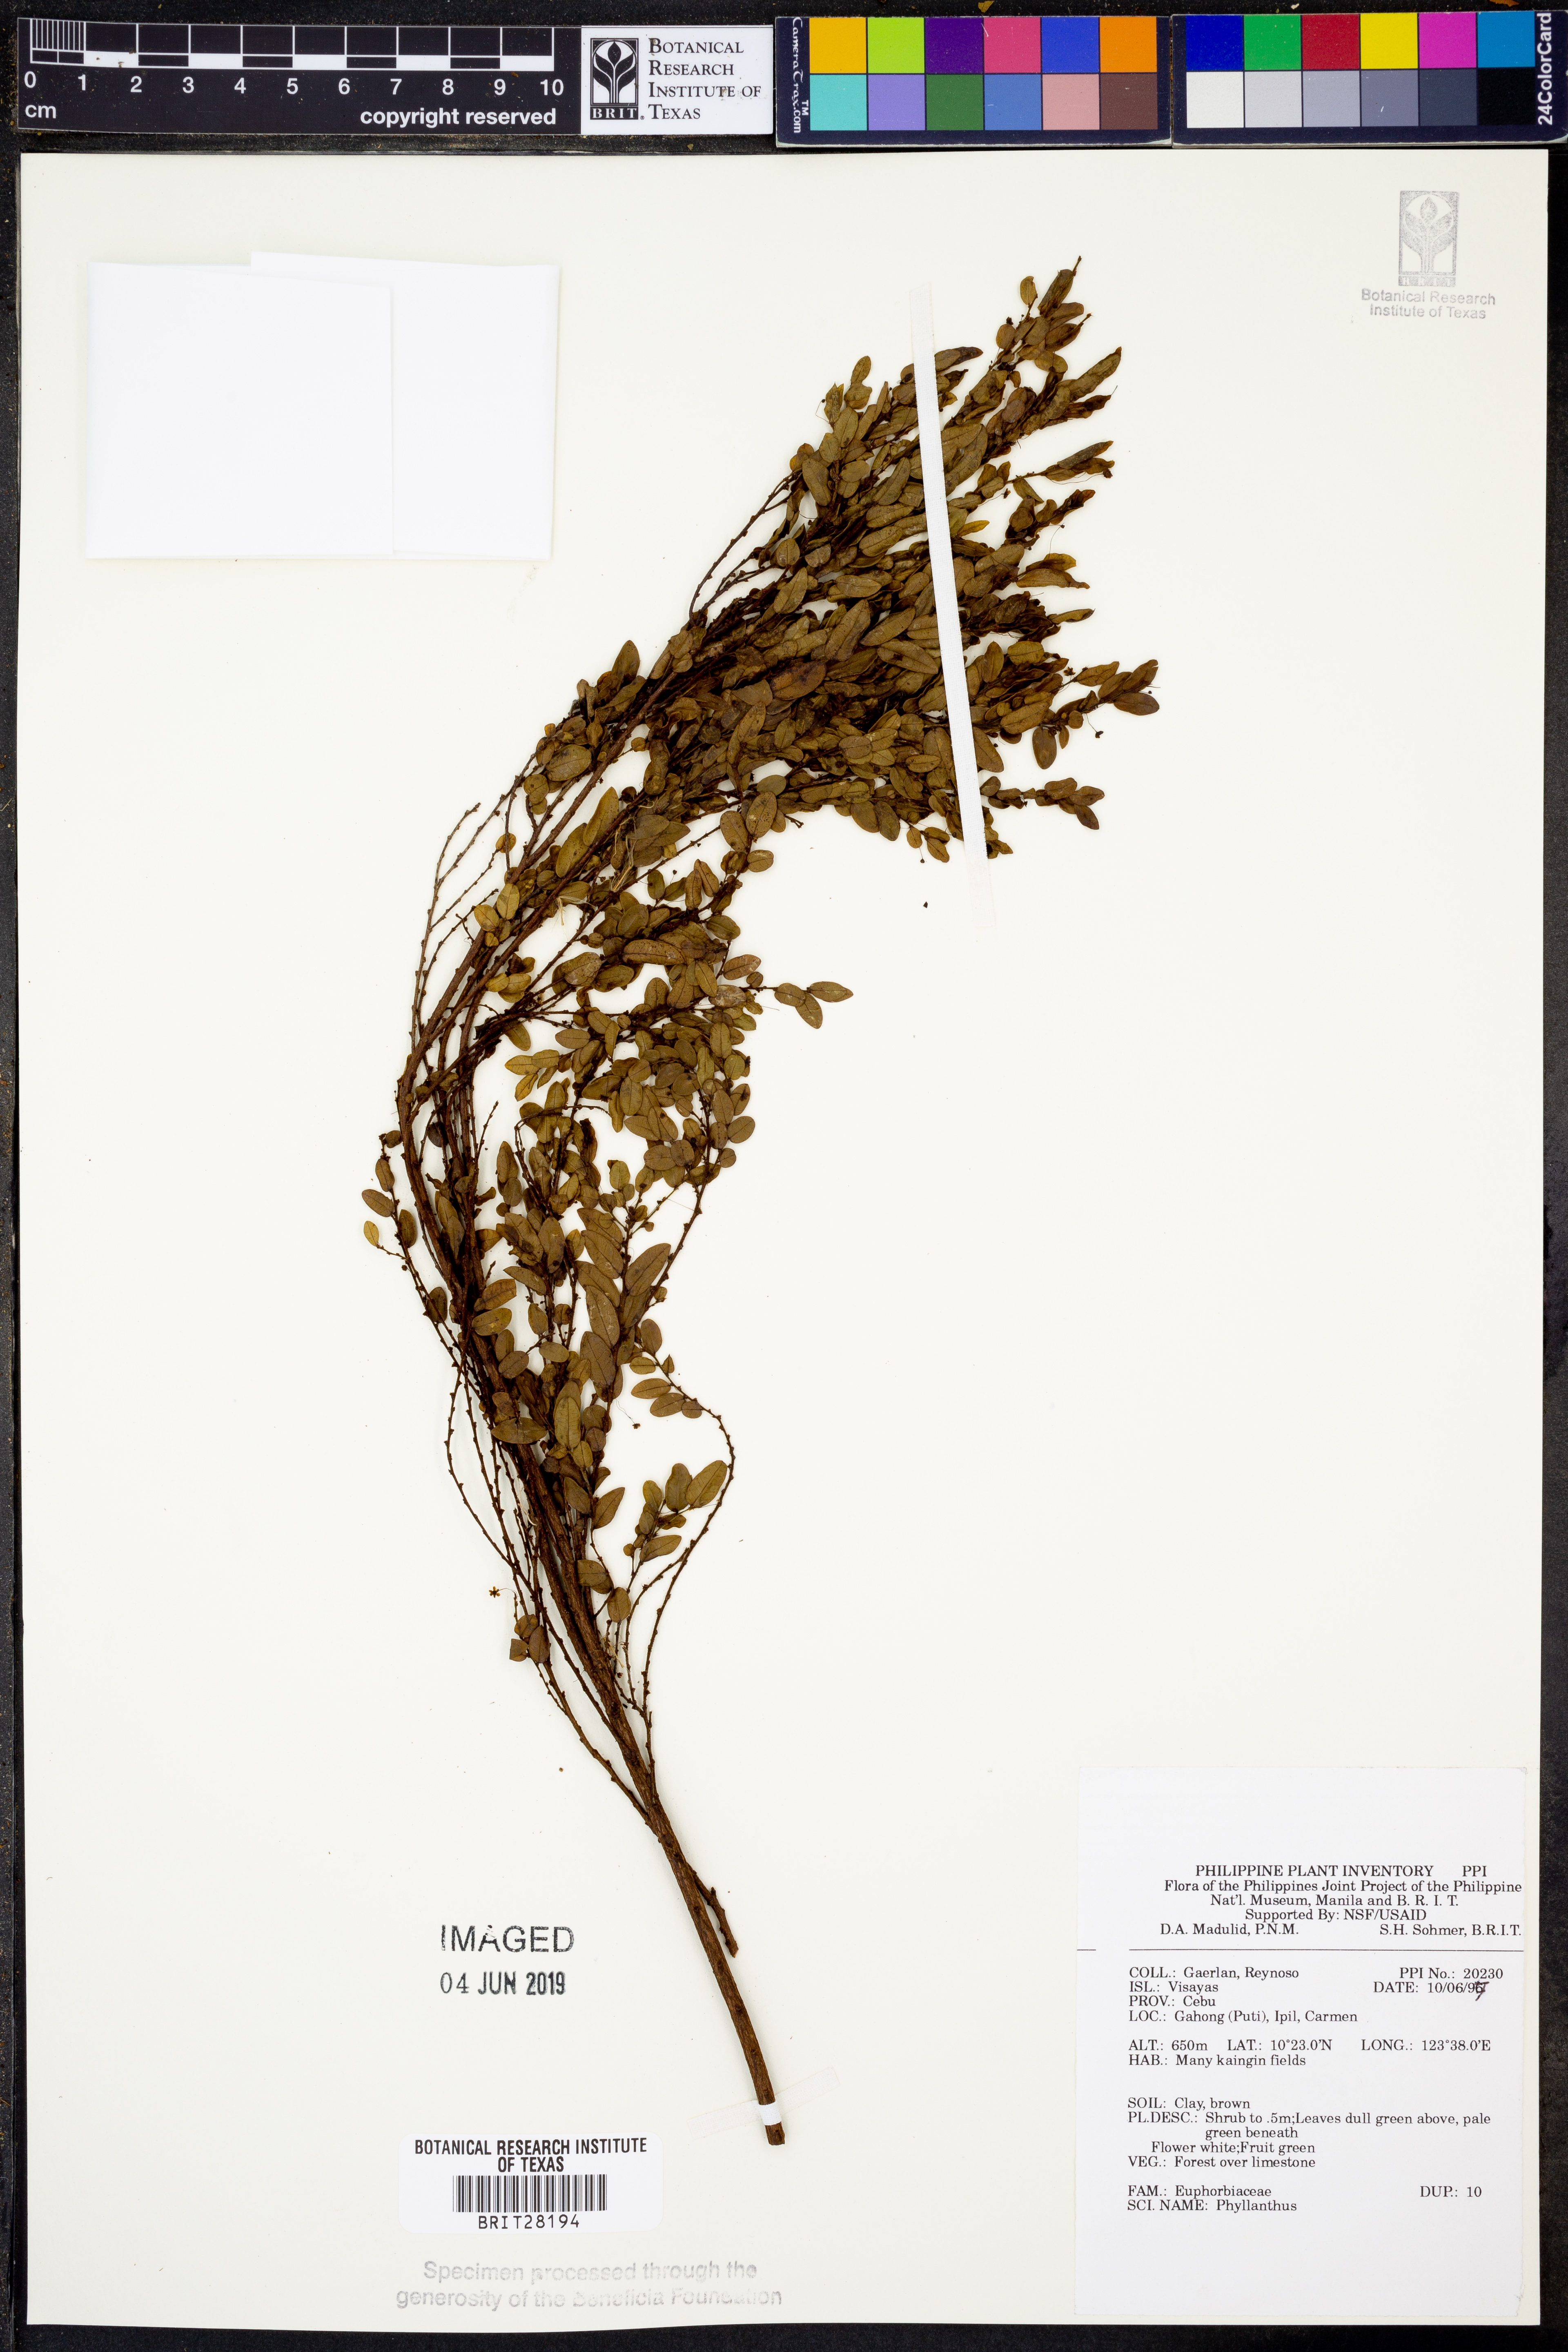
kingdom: Plantae
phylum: Tracheophyta
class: Magnoliopsida
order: Malpighiales
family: Phyllanthaceae
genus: Phyllanthus
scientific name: Phyllanthus
